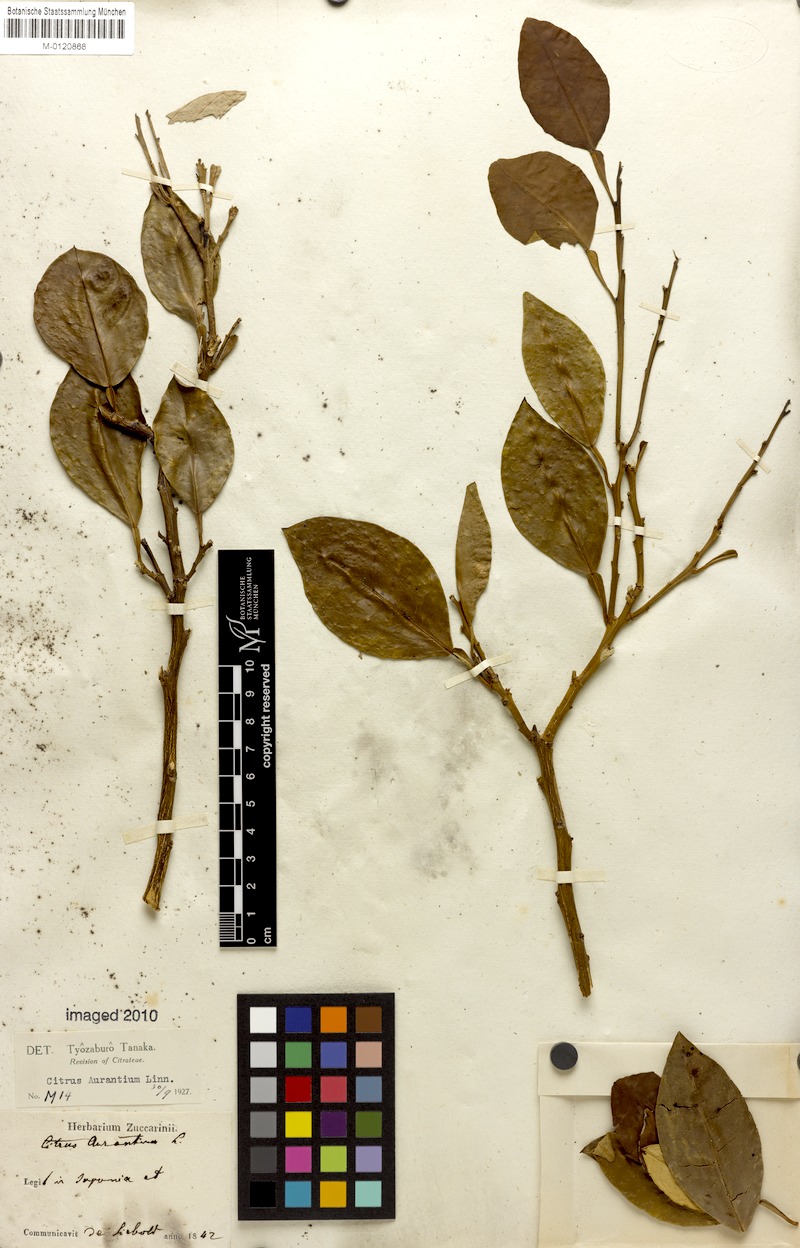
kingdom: Plantae
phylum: Tracheophyta
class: Magnoliopsida
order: Sapindales
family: Rutaceae
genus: Citrus
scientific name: Citrus aurantium
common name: Sour orange
